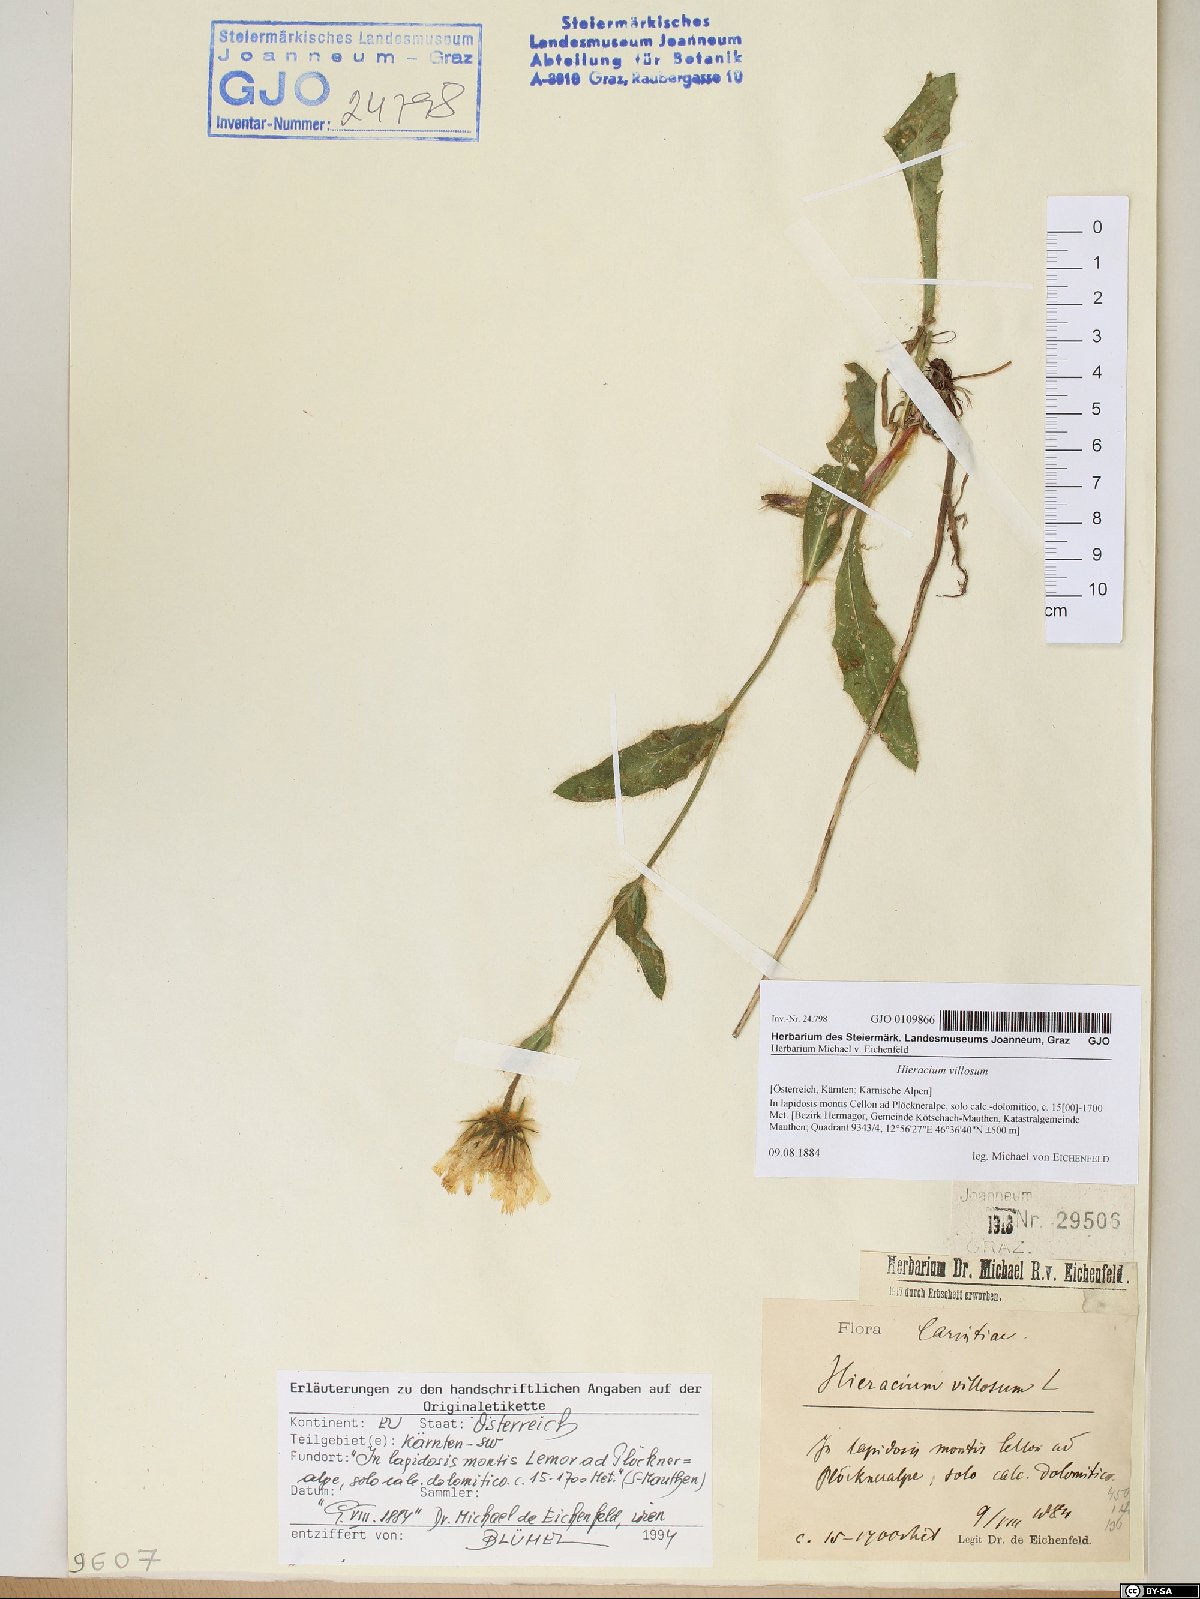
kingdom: Plantae
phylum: Tracheophyta
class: Magnoliopsida
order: Asterales
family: Asteraceae
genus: Hieracium
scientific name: Hieracium villosum
